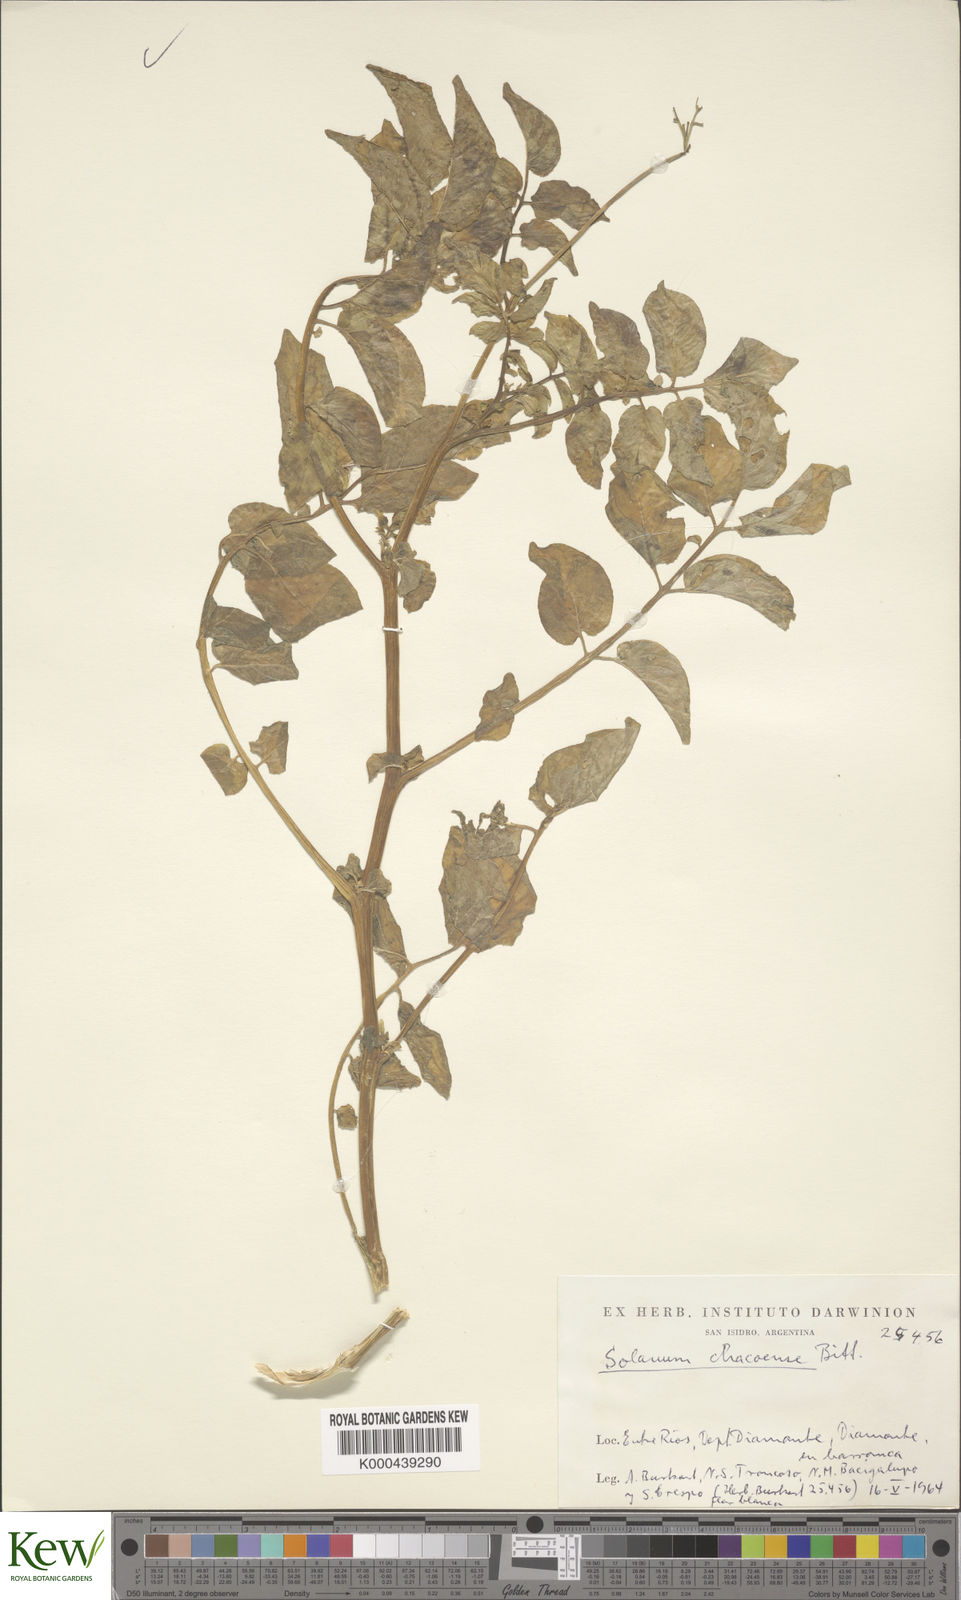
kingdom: Plantae
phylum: Tracheophyta
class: Magnoliopsida
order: Solanales
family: Solanaceae
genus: Solanum
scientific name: Solanum chacoense
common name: Chaco potato
